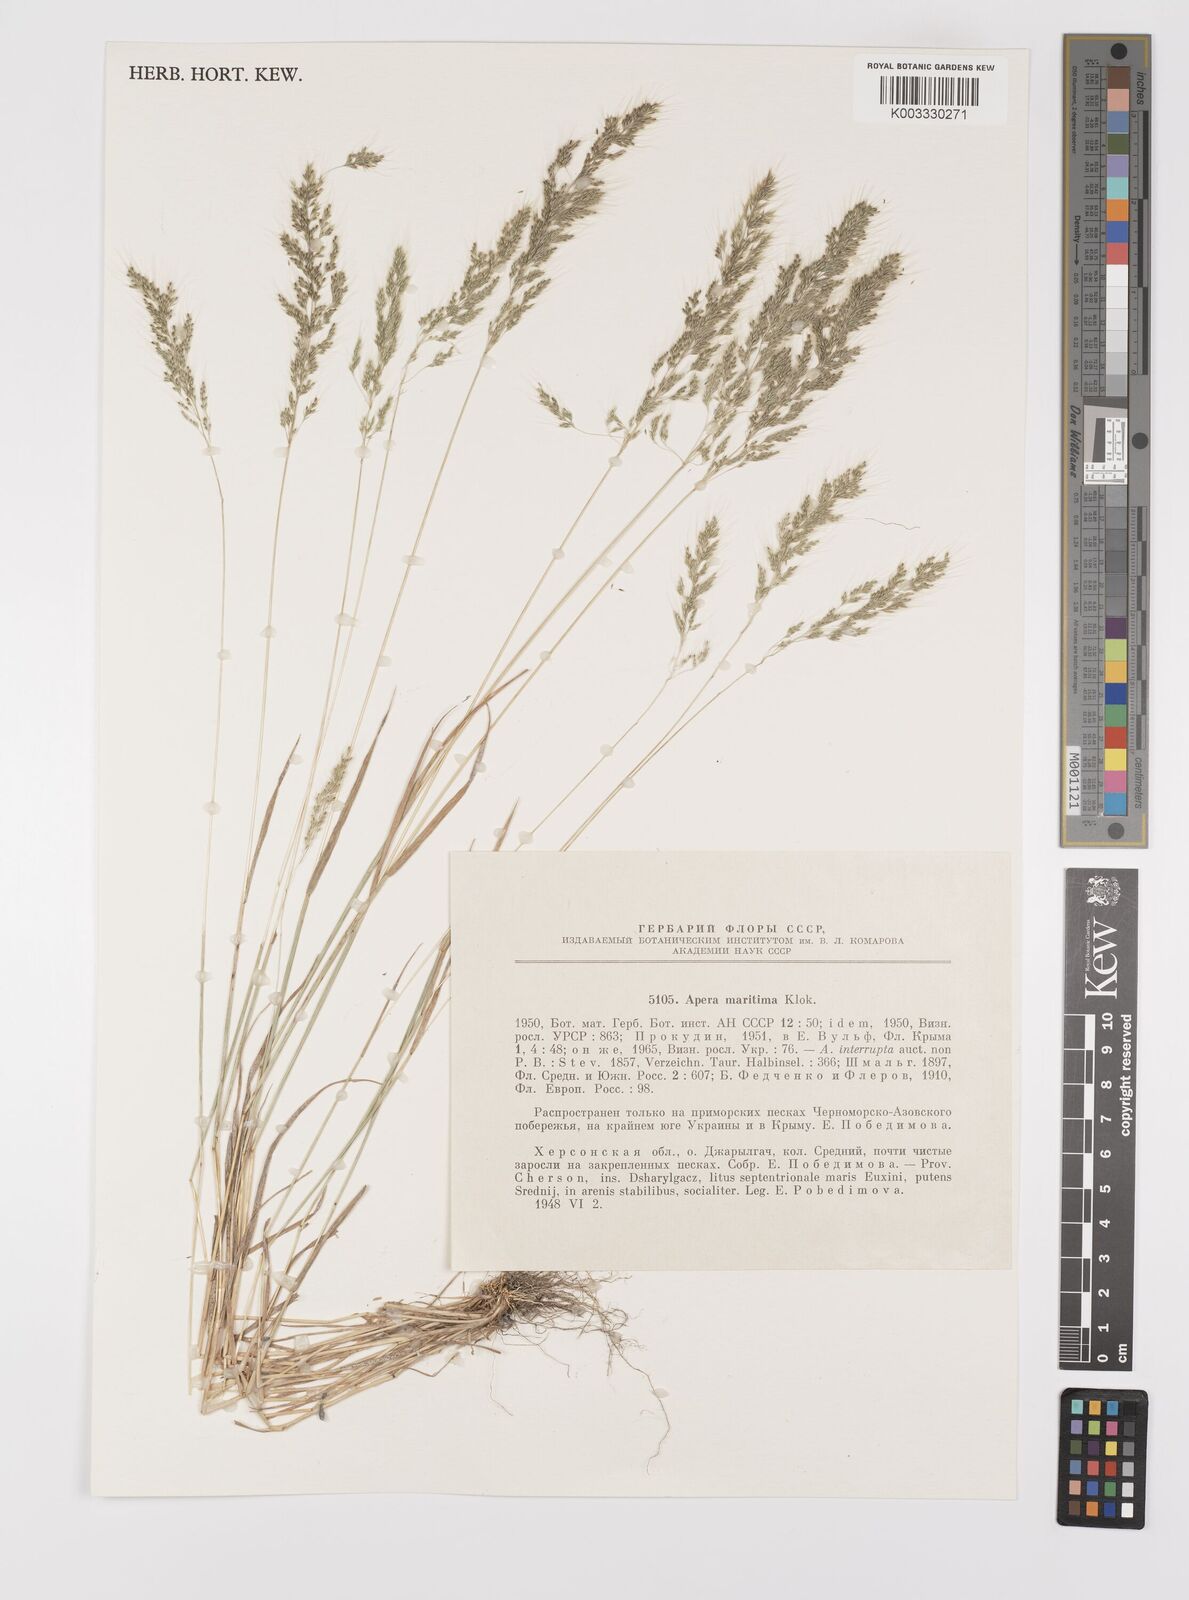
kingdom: Plantae
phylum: Tracheophyta
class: Liliopsida
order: Poales
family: Poaceae
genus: Apera
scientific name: Apera spica-venti
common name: Loose silky-bent
